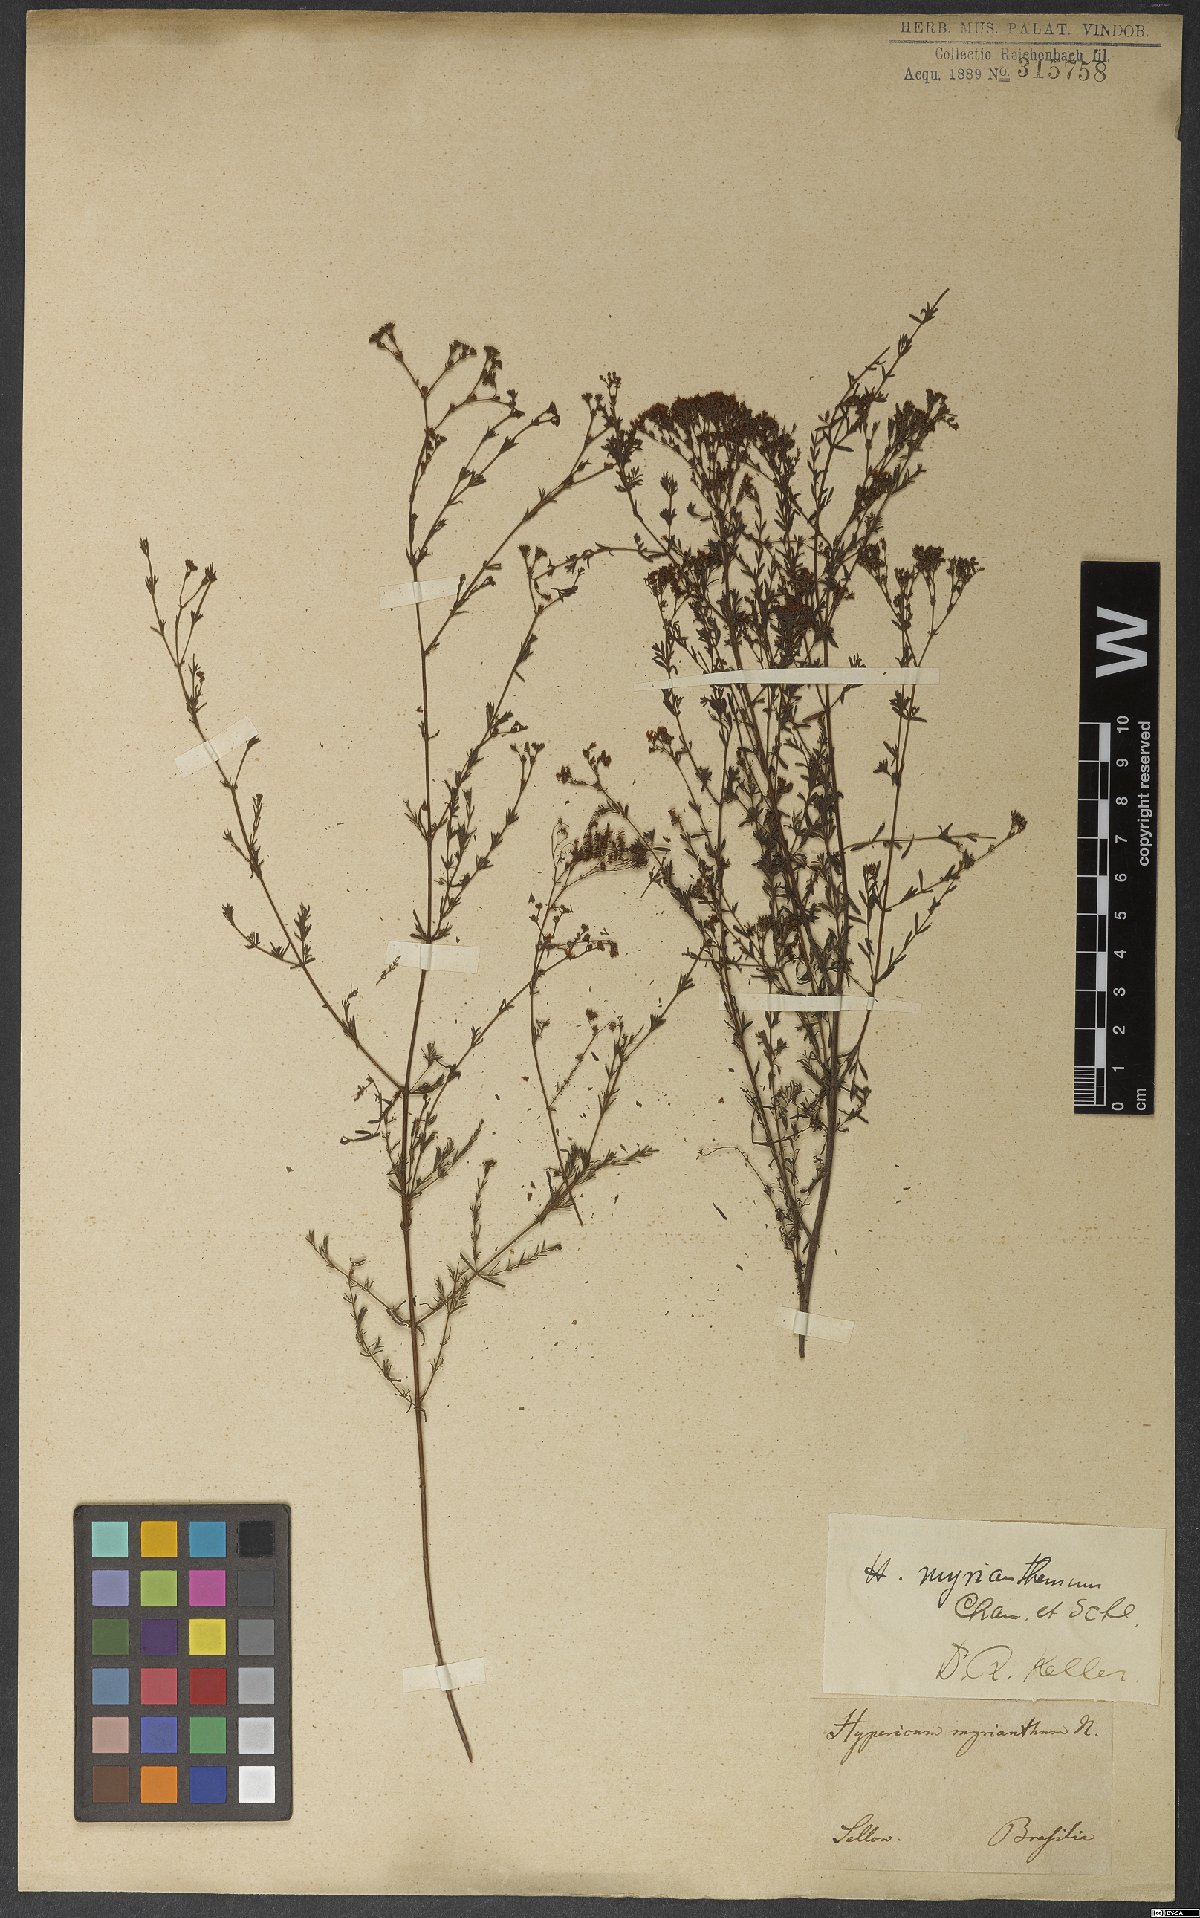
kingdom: Plantae
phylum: Tracheophyta
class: Magnoliopsida
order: Malpighiales
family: Hypericaceae
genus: Hypericum
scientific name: Hypericum myrianthum
